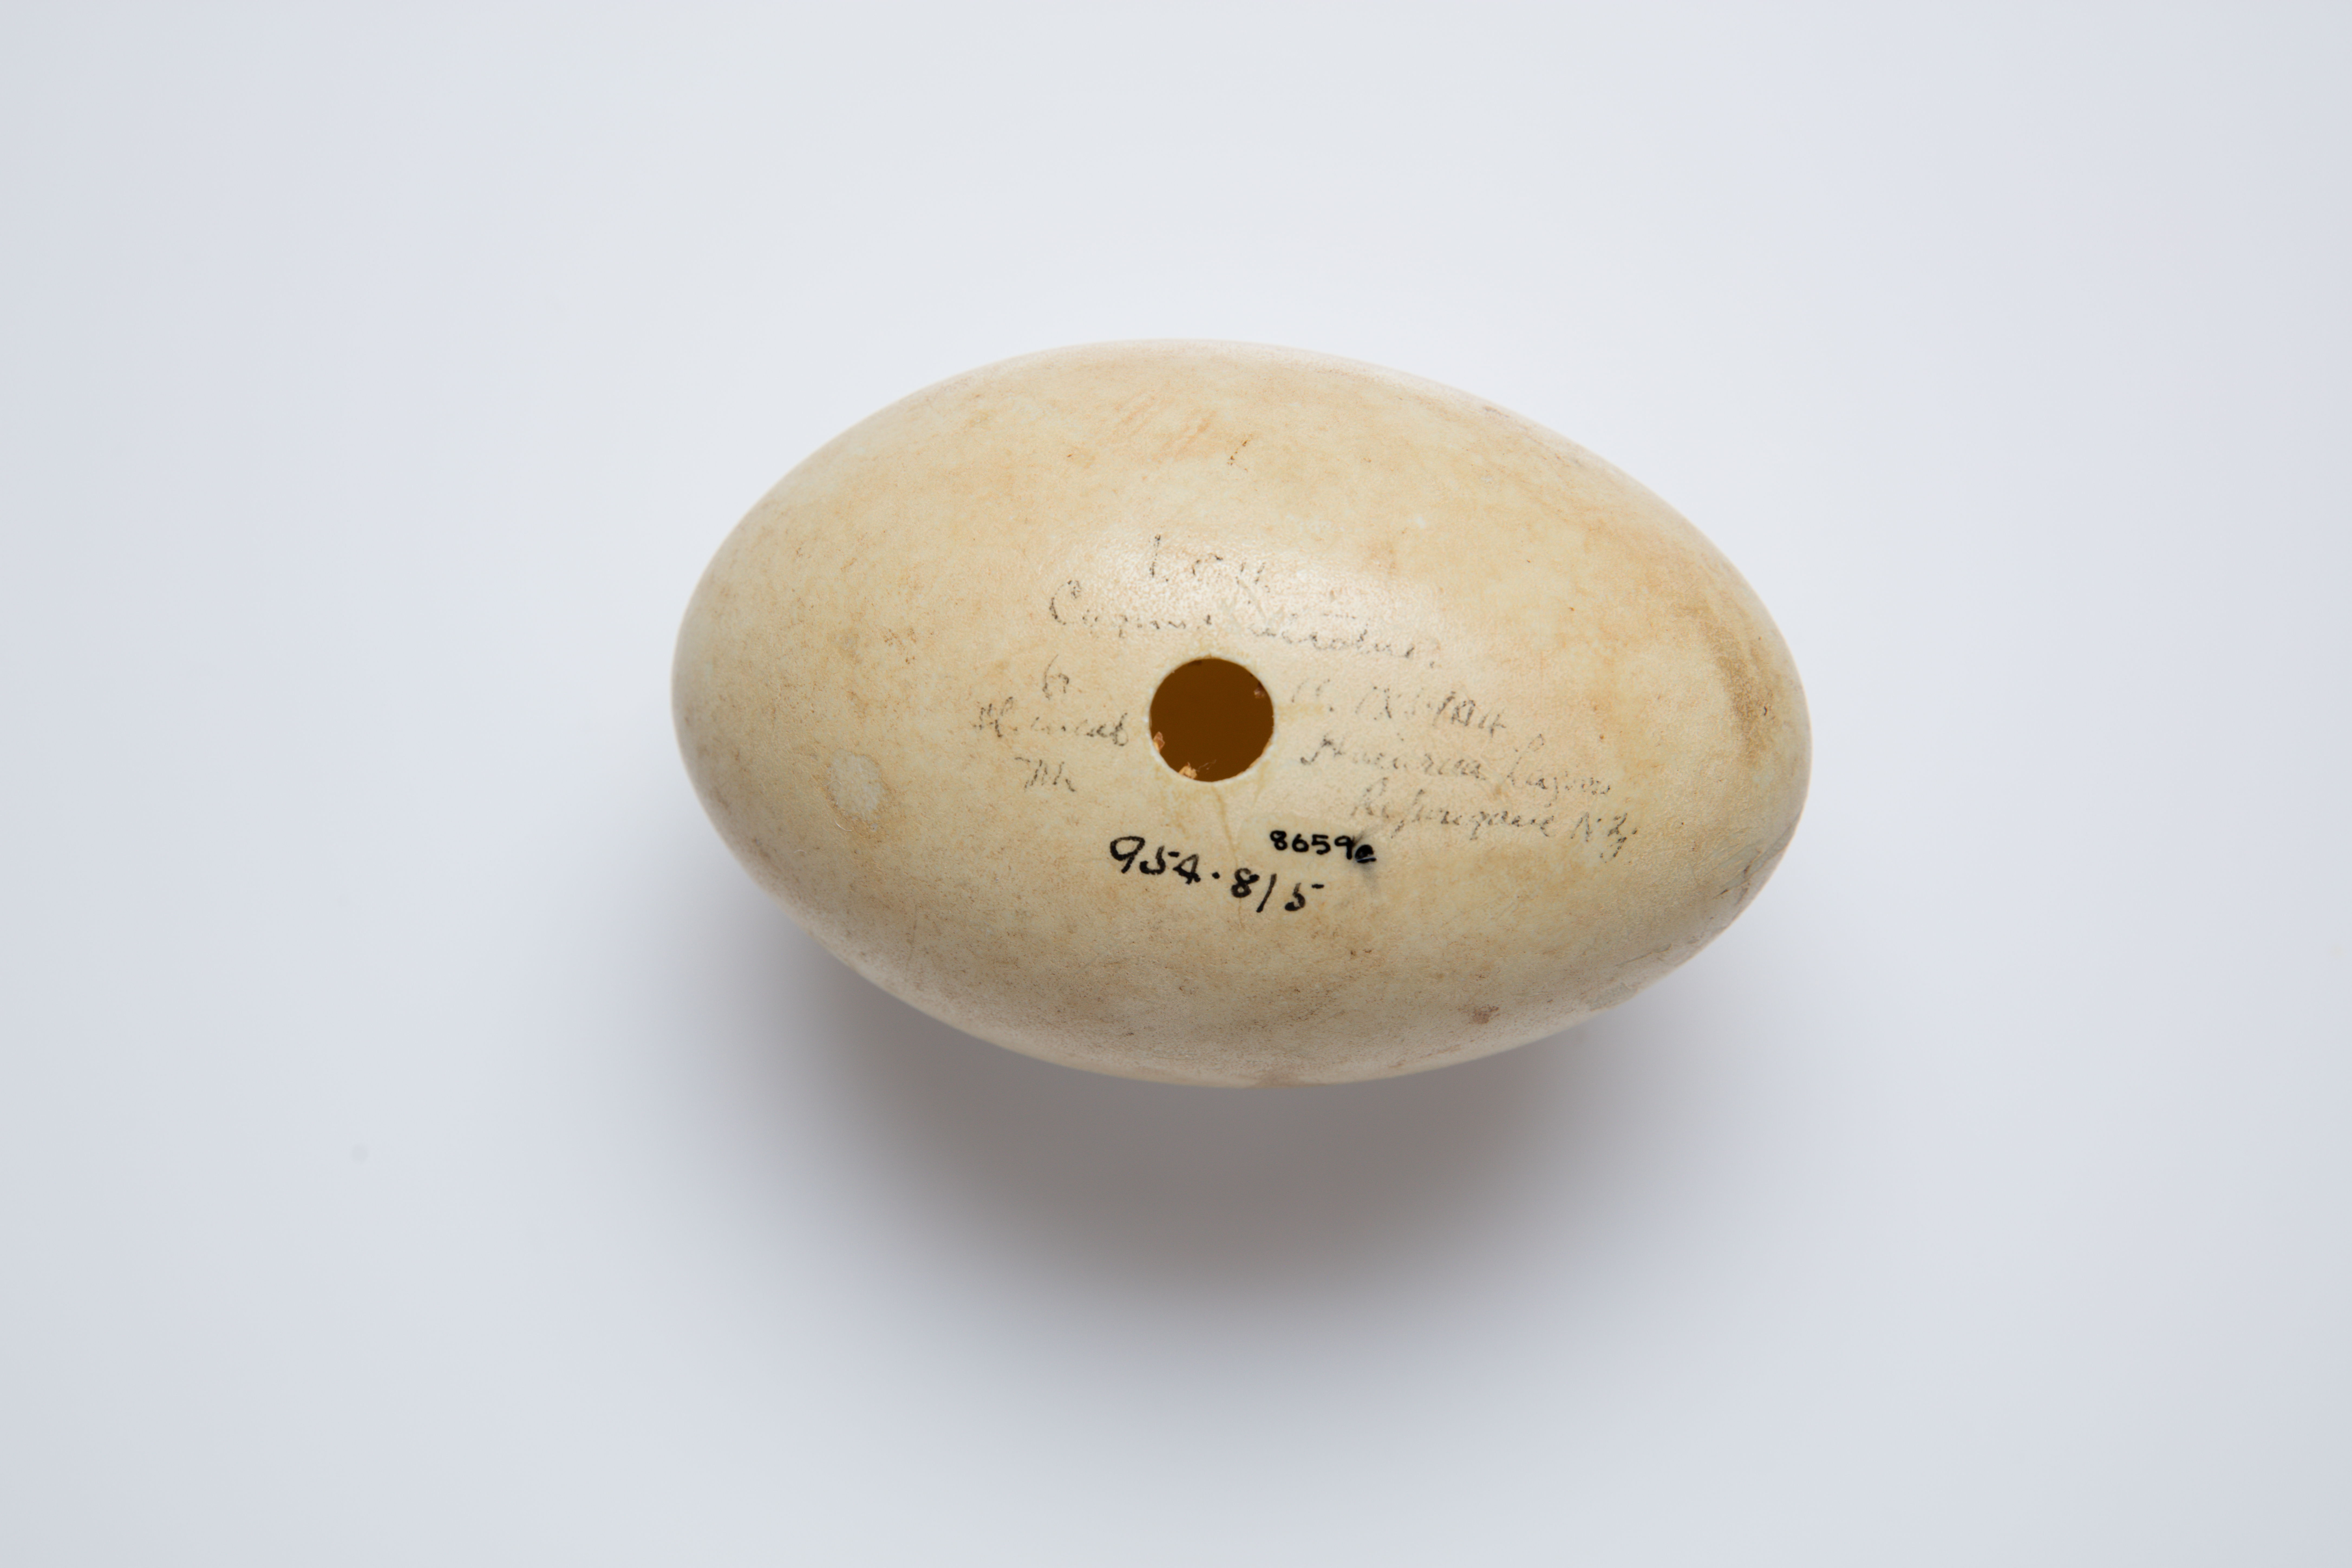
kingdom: Animalia
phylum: Chordata
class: Aves
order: Anseriformes
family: Anatidae
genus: Cygnus
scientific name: Cygnus atratus
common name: Black swan
